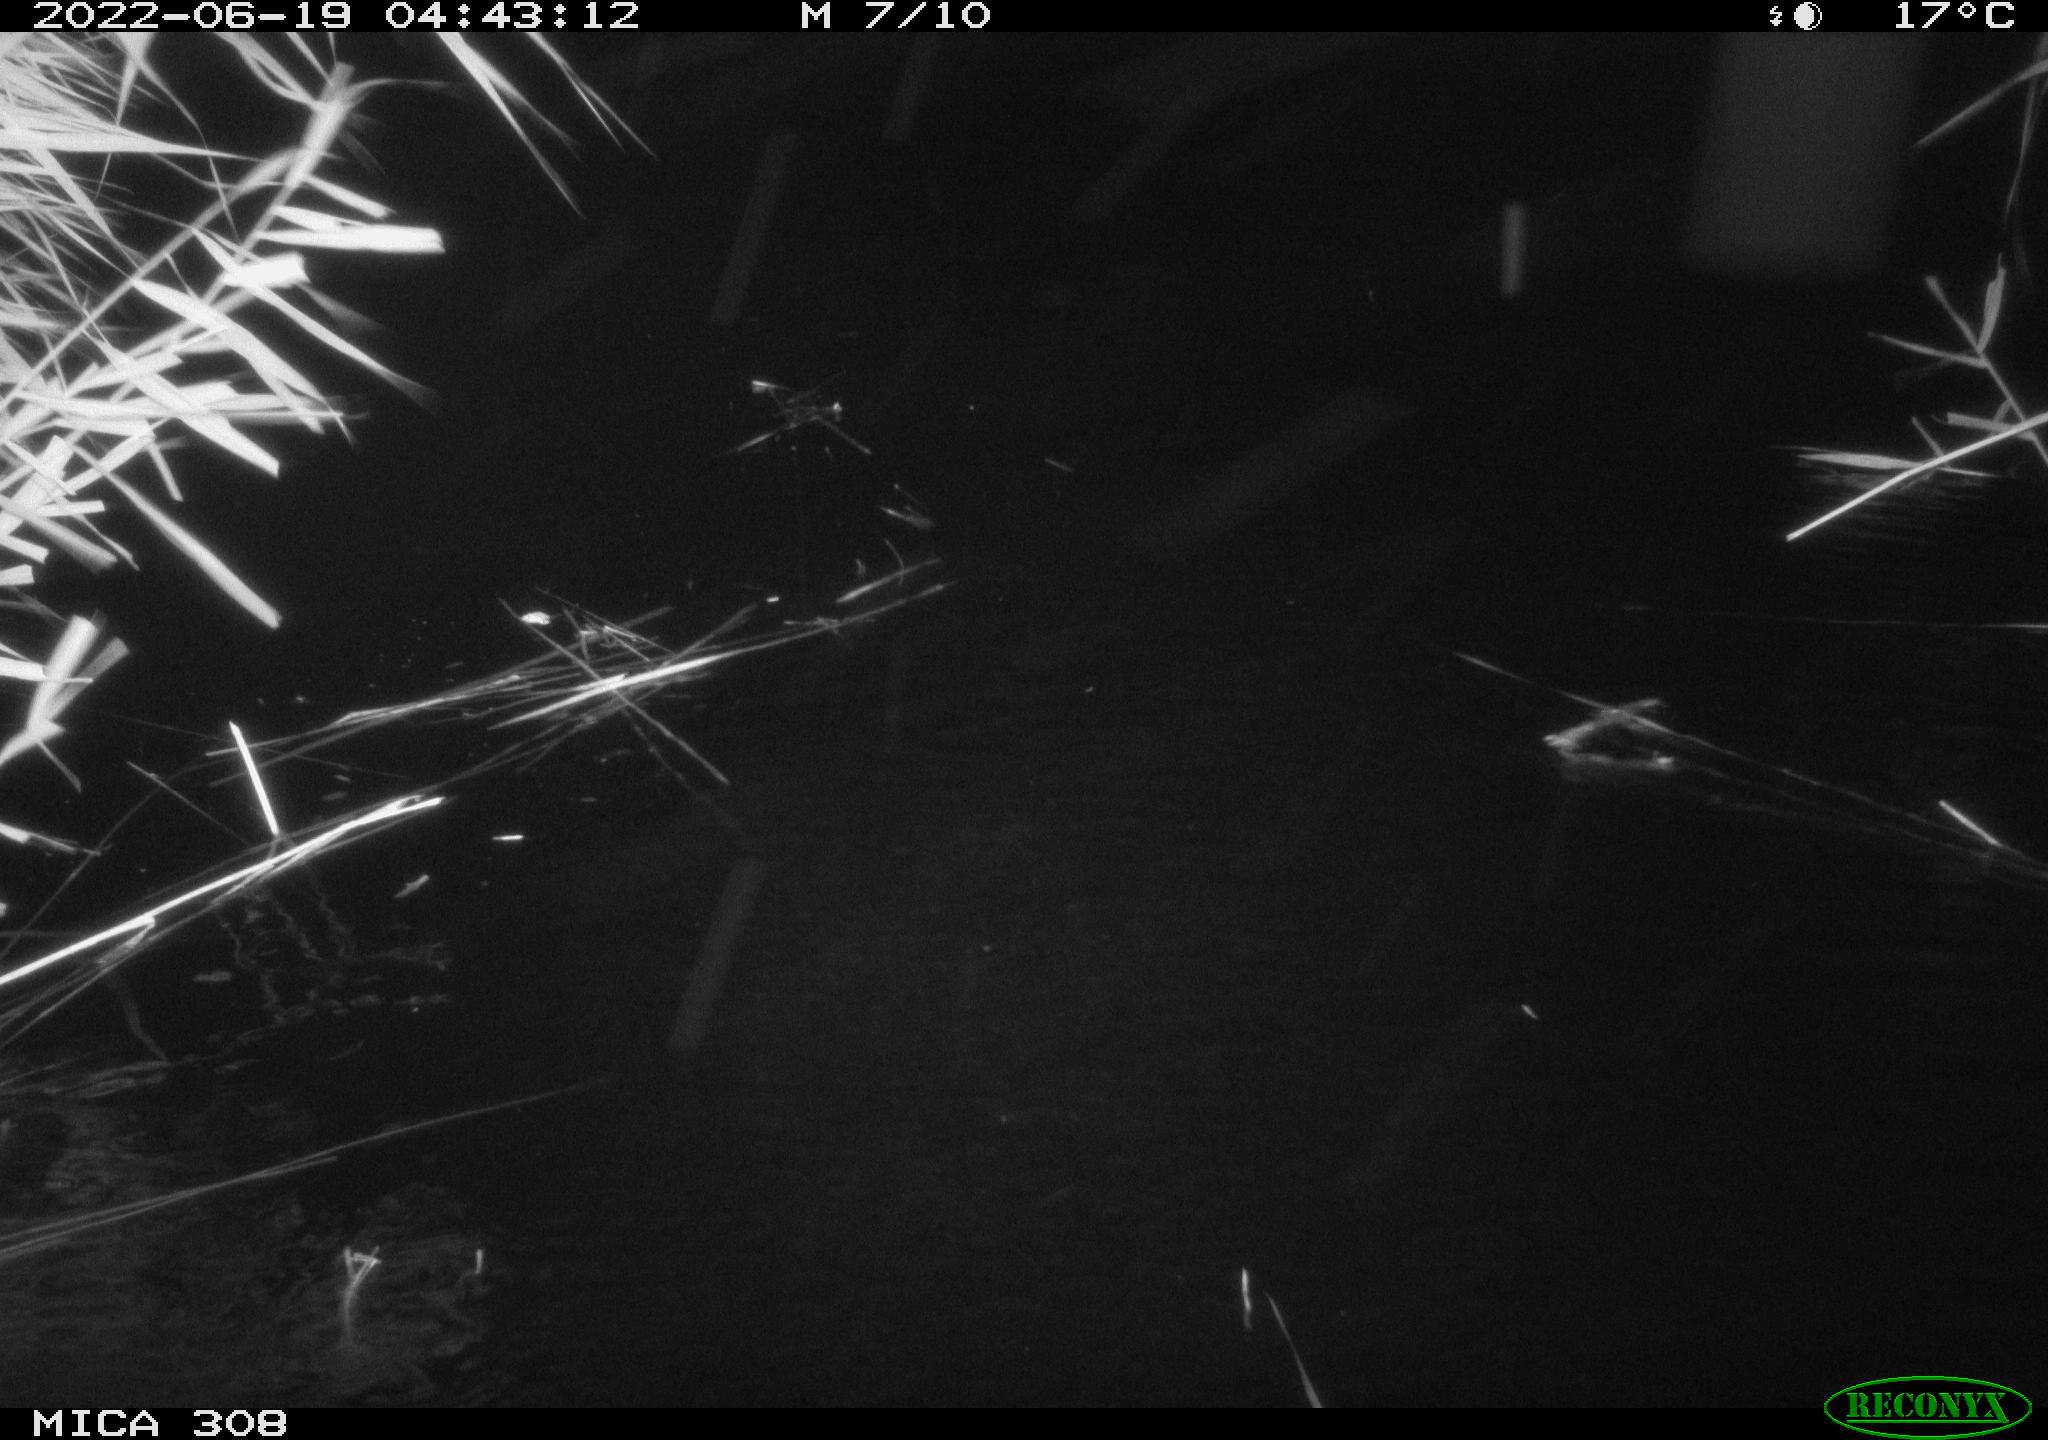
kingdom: Animalia
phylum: Chordata
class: Aves
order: Anseriformes
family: Anatidae
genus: Anas
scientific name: Anas platyrhynchos
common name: Mallard
